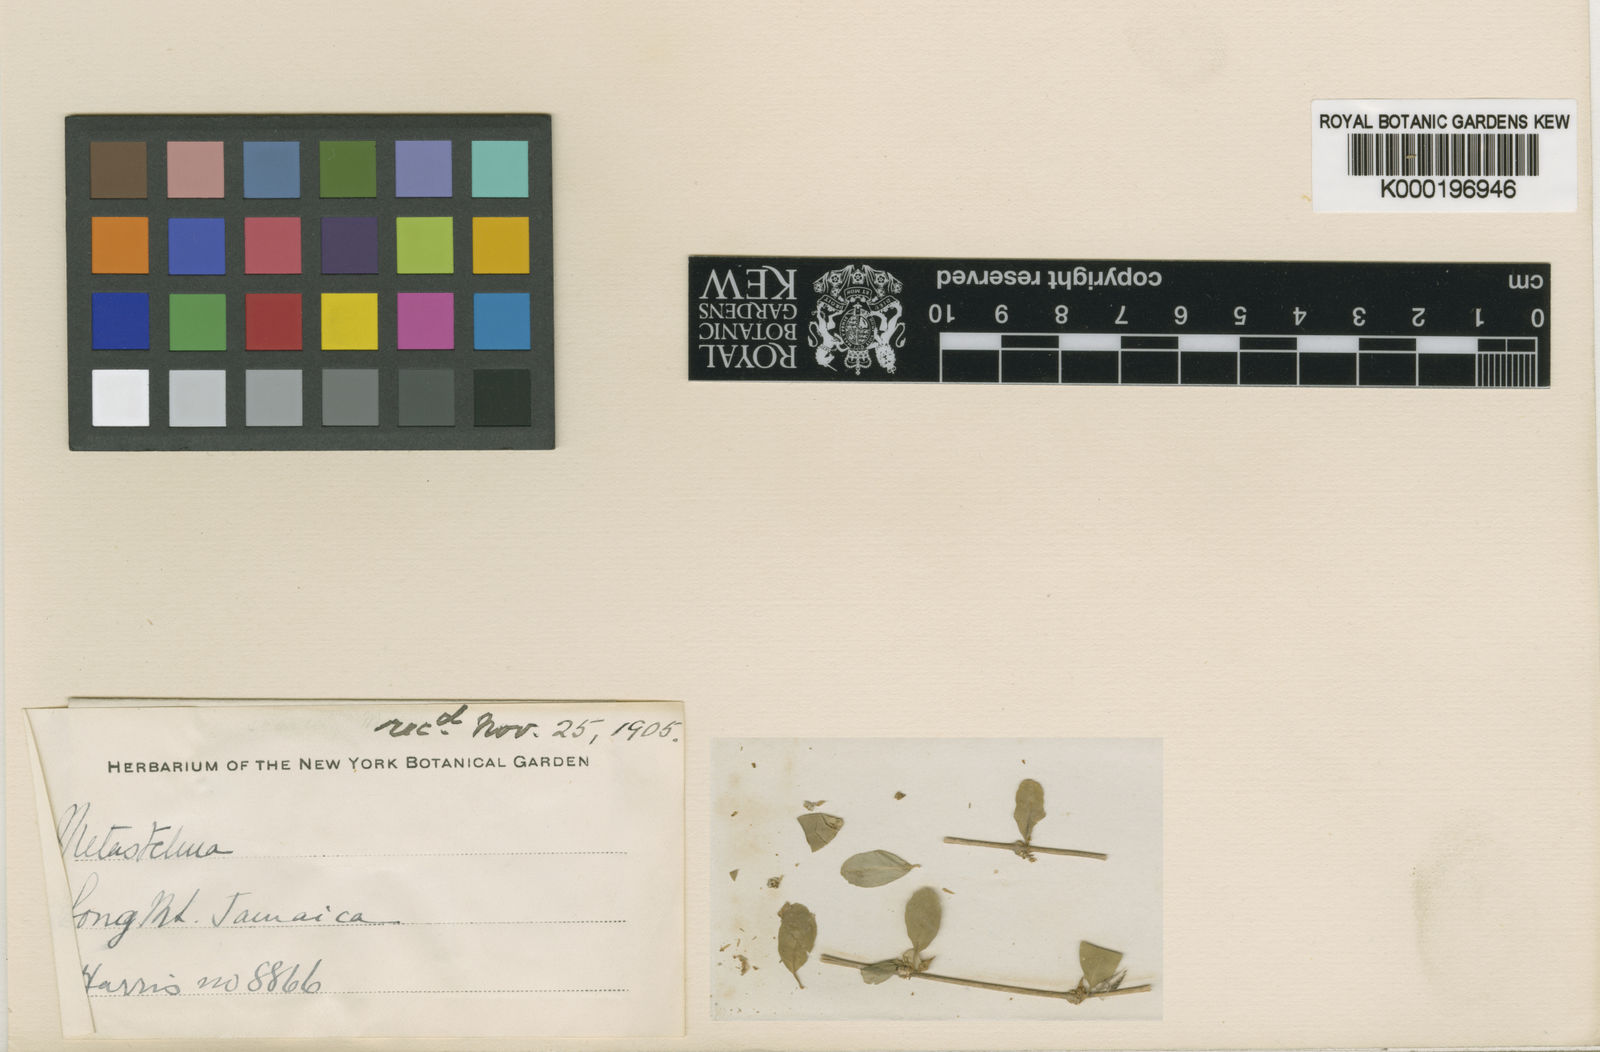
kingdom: Plantae
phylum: Tracheophyta
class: Magnoliopsida
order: Gentianales
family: Apocynaceae
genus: Metastelma
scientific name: Metastelma
